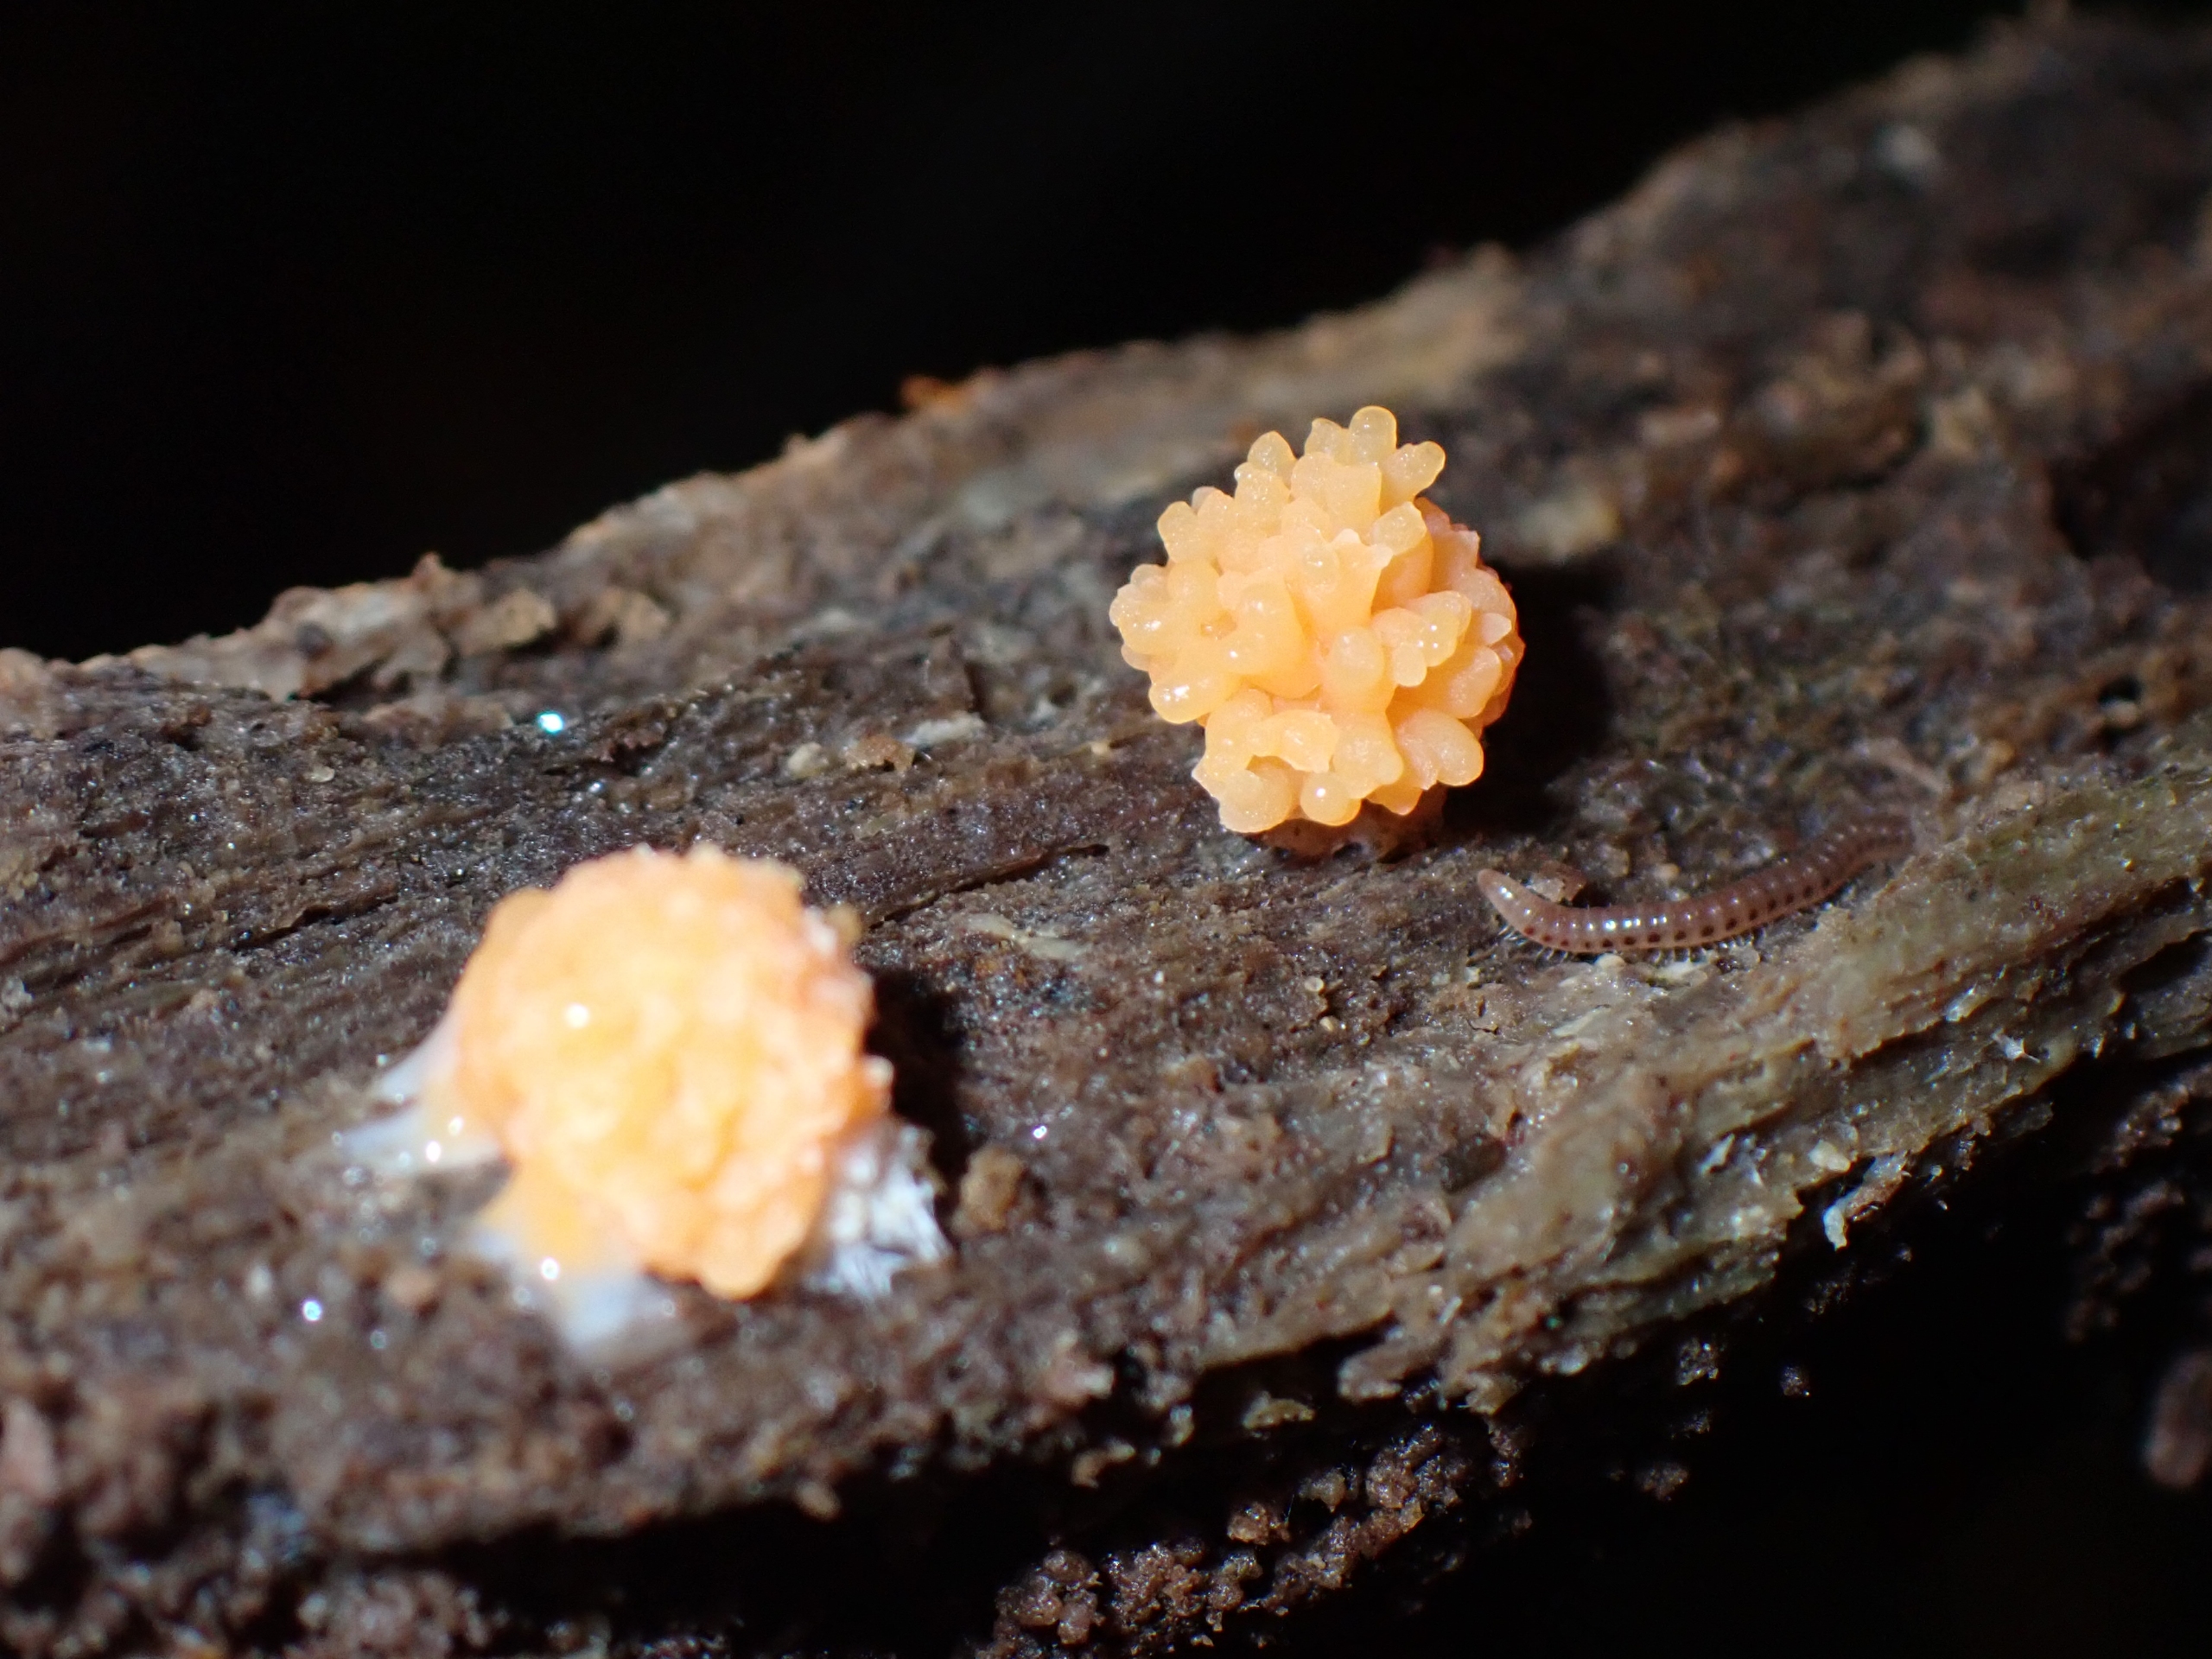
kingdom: Protozoa
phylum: Mycetozoa
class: Myxomycetes
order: Cribrariales
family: Tubiferaceae
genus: Tubifera
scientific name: Tubifera ferruginosa
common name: Kanel-støvrør
